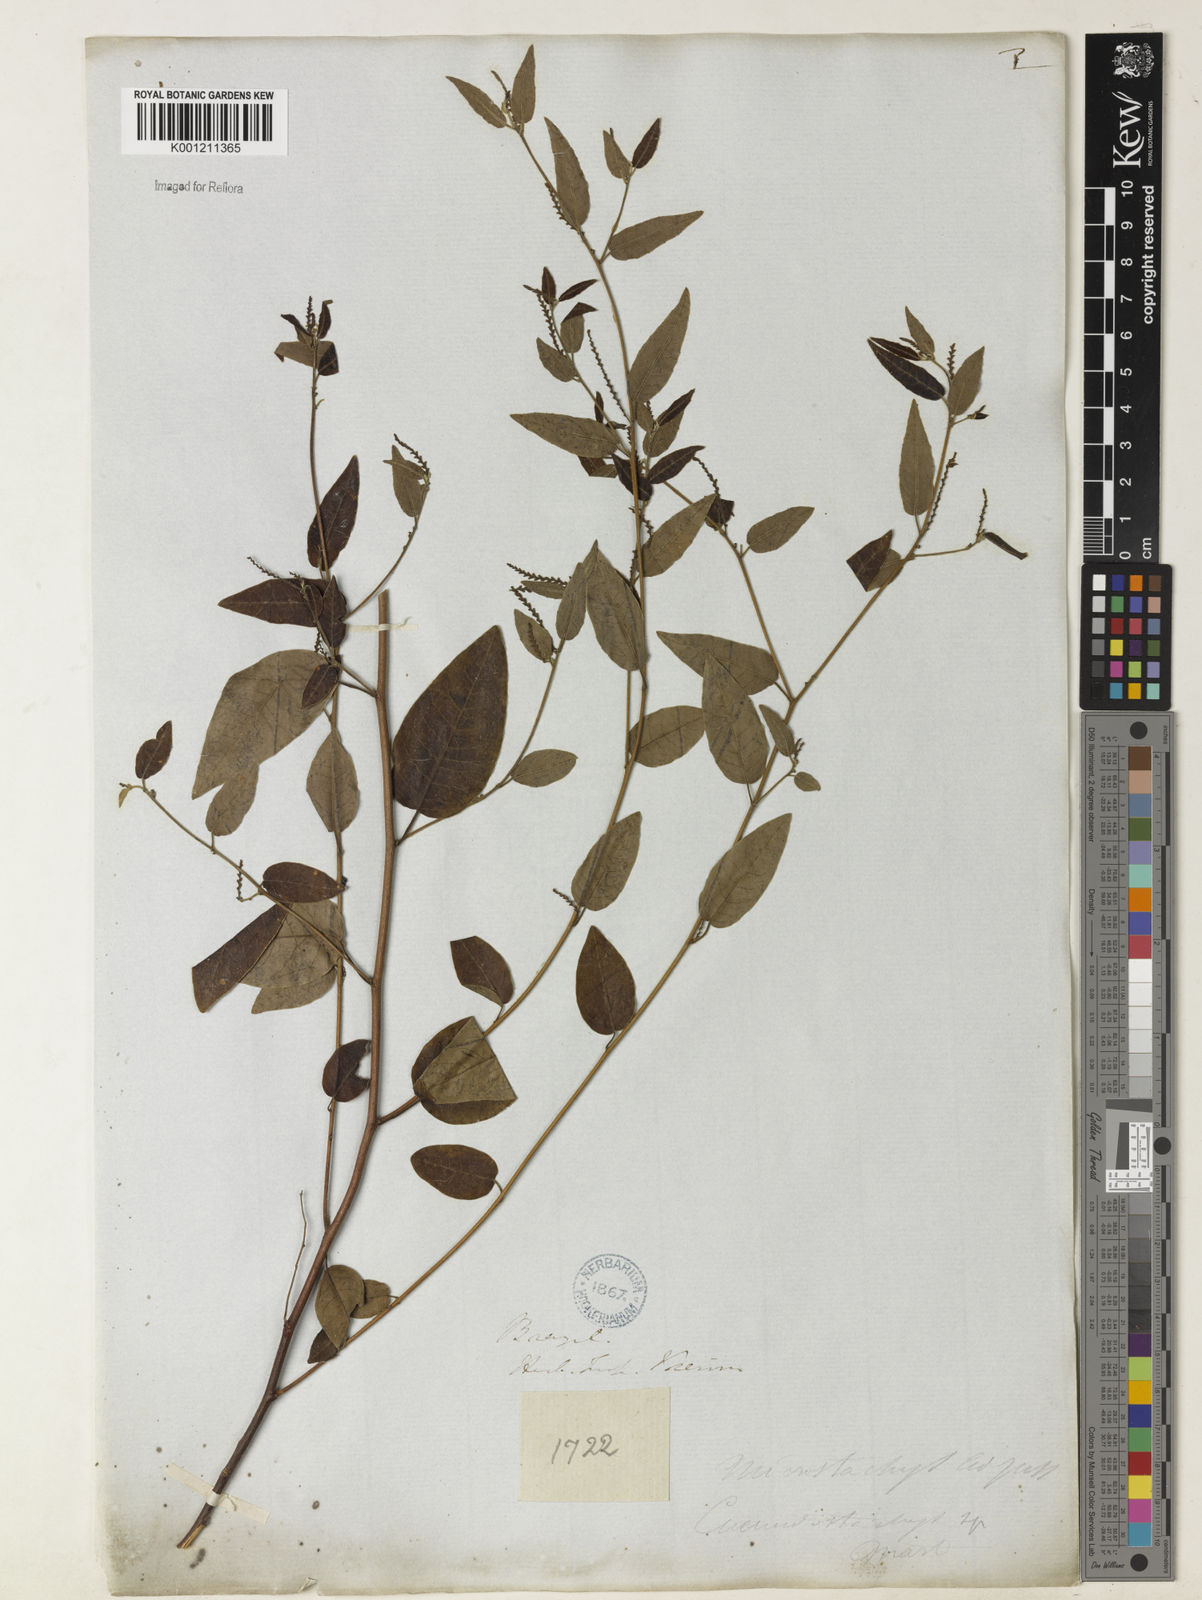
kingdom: Plantae
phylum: Tracheophyta
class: Magnoliopsida
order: Malpighiales
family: Euphorbiaceae
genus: Microstachys
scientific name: Microstachys corniculata
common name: Hato tejas
